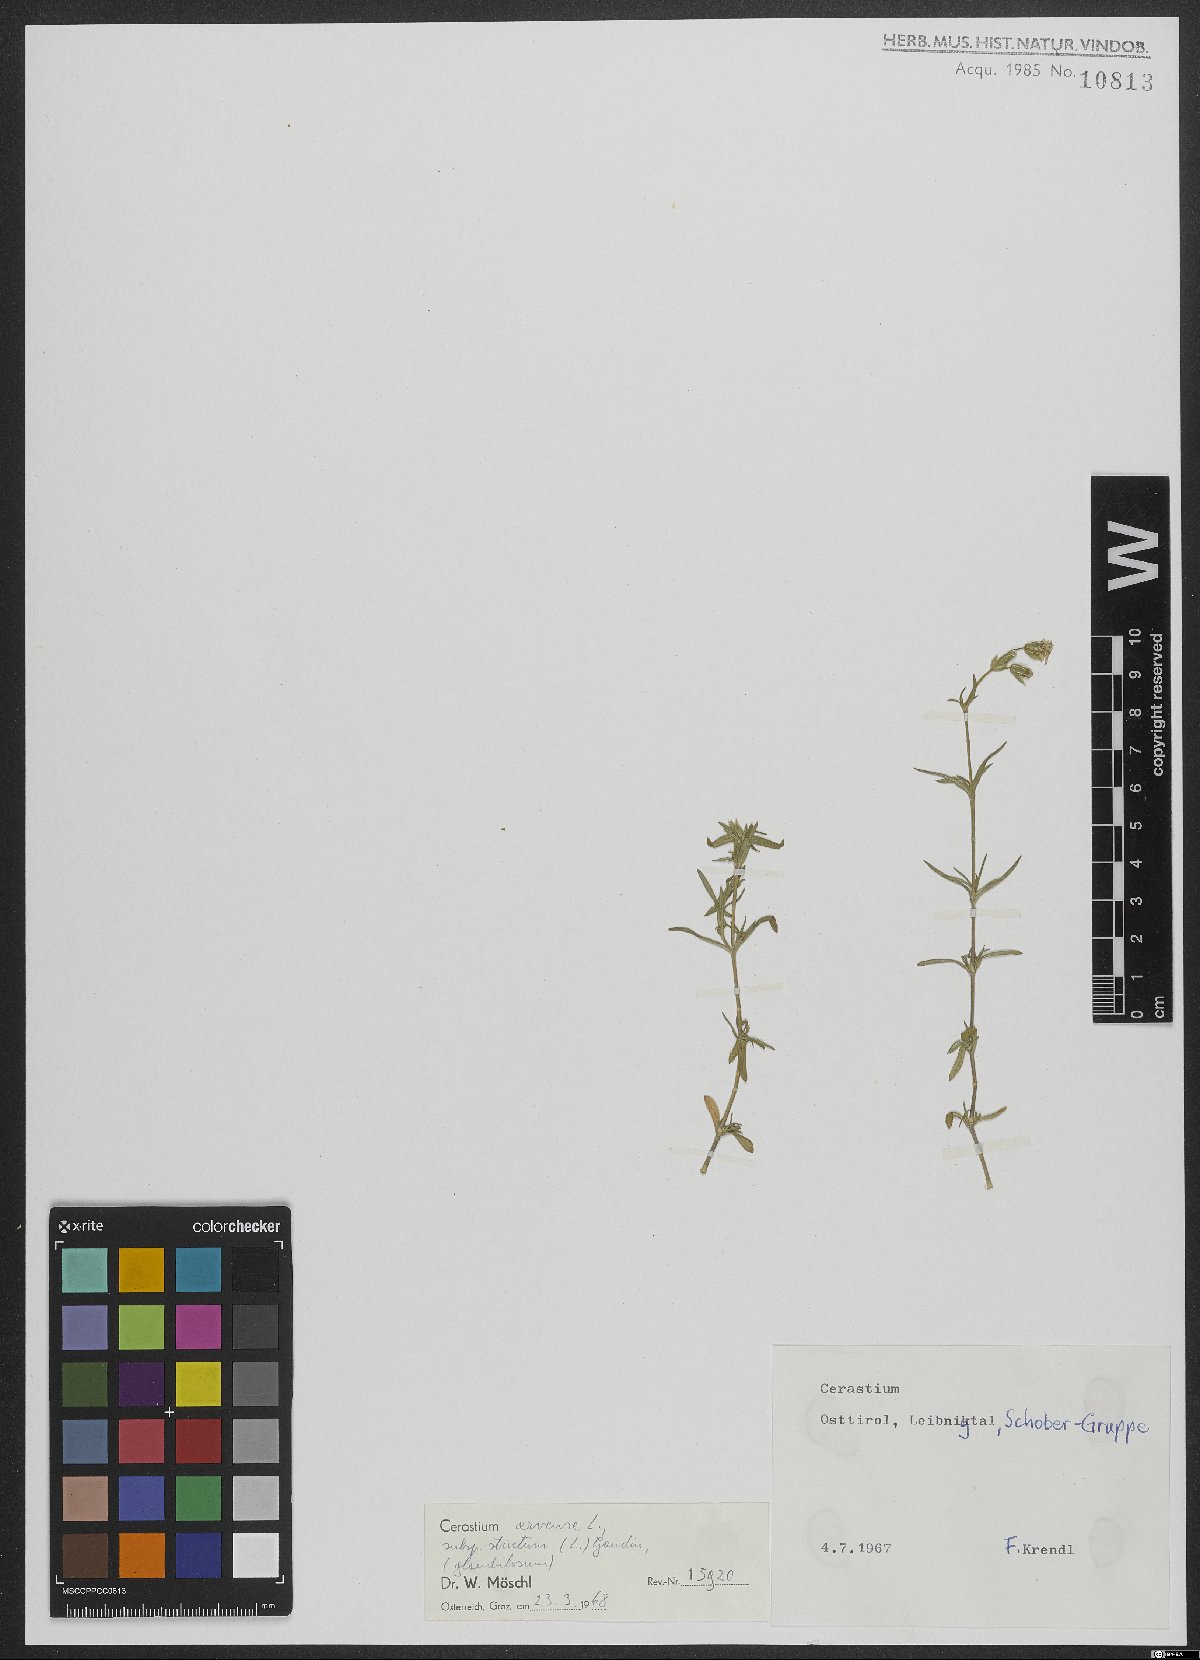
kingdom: Plantae
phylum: Tracheophyta
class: Magnoliopsida
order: Caryophyllales
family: Caryophyllaceae
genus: Cerastium
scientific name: Cerastium elongatum
